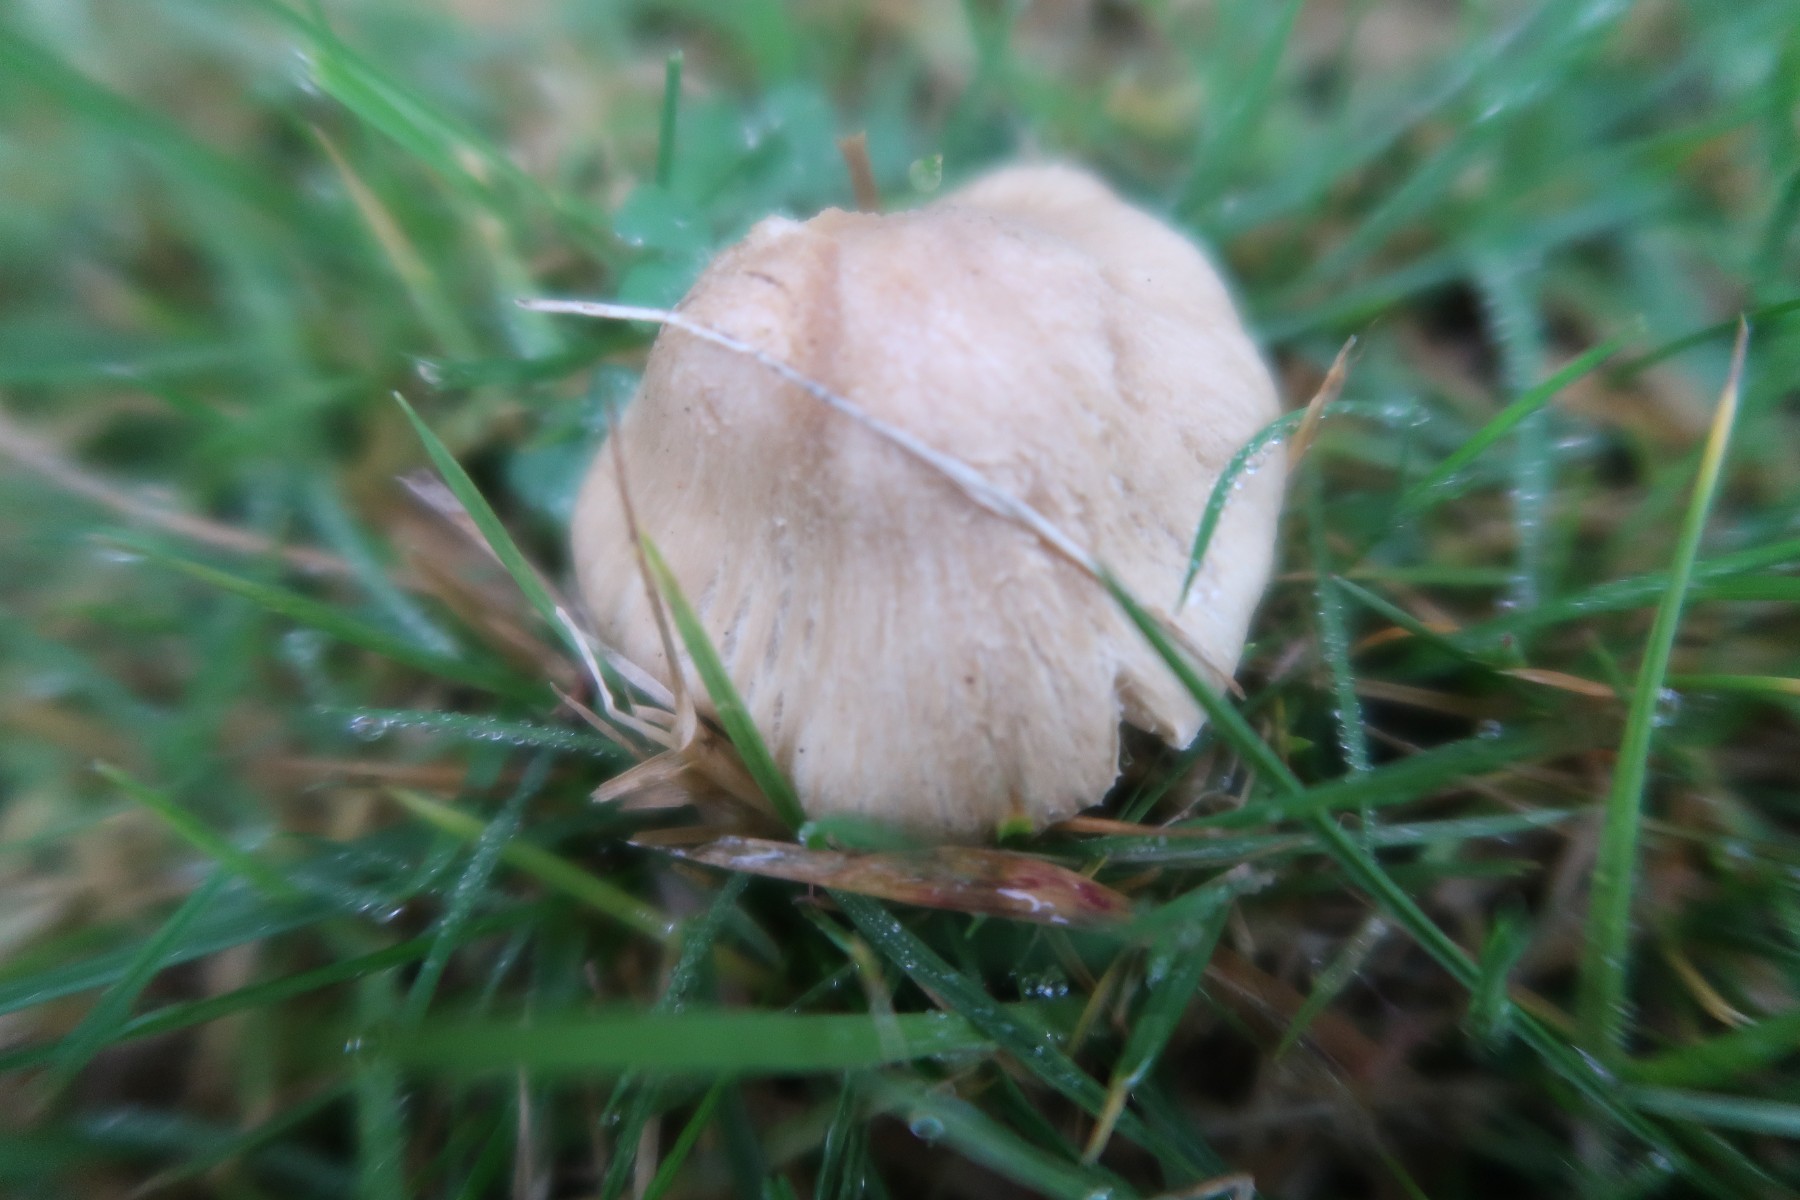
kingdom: Fungi
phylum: Basidiomycota
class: Agaricomycetes
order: Agaricales
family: Inocybaceae
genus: Inocybe
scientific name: Inocybe sindonia
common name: bleg trævlhat
